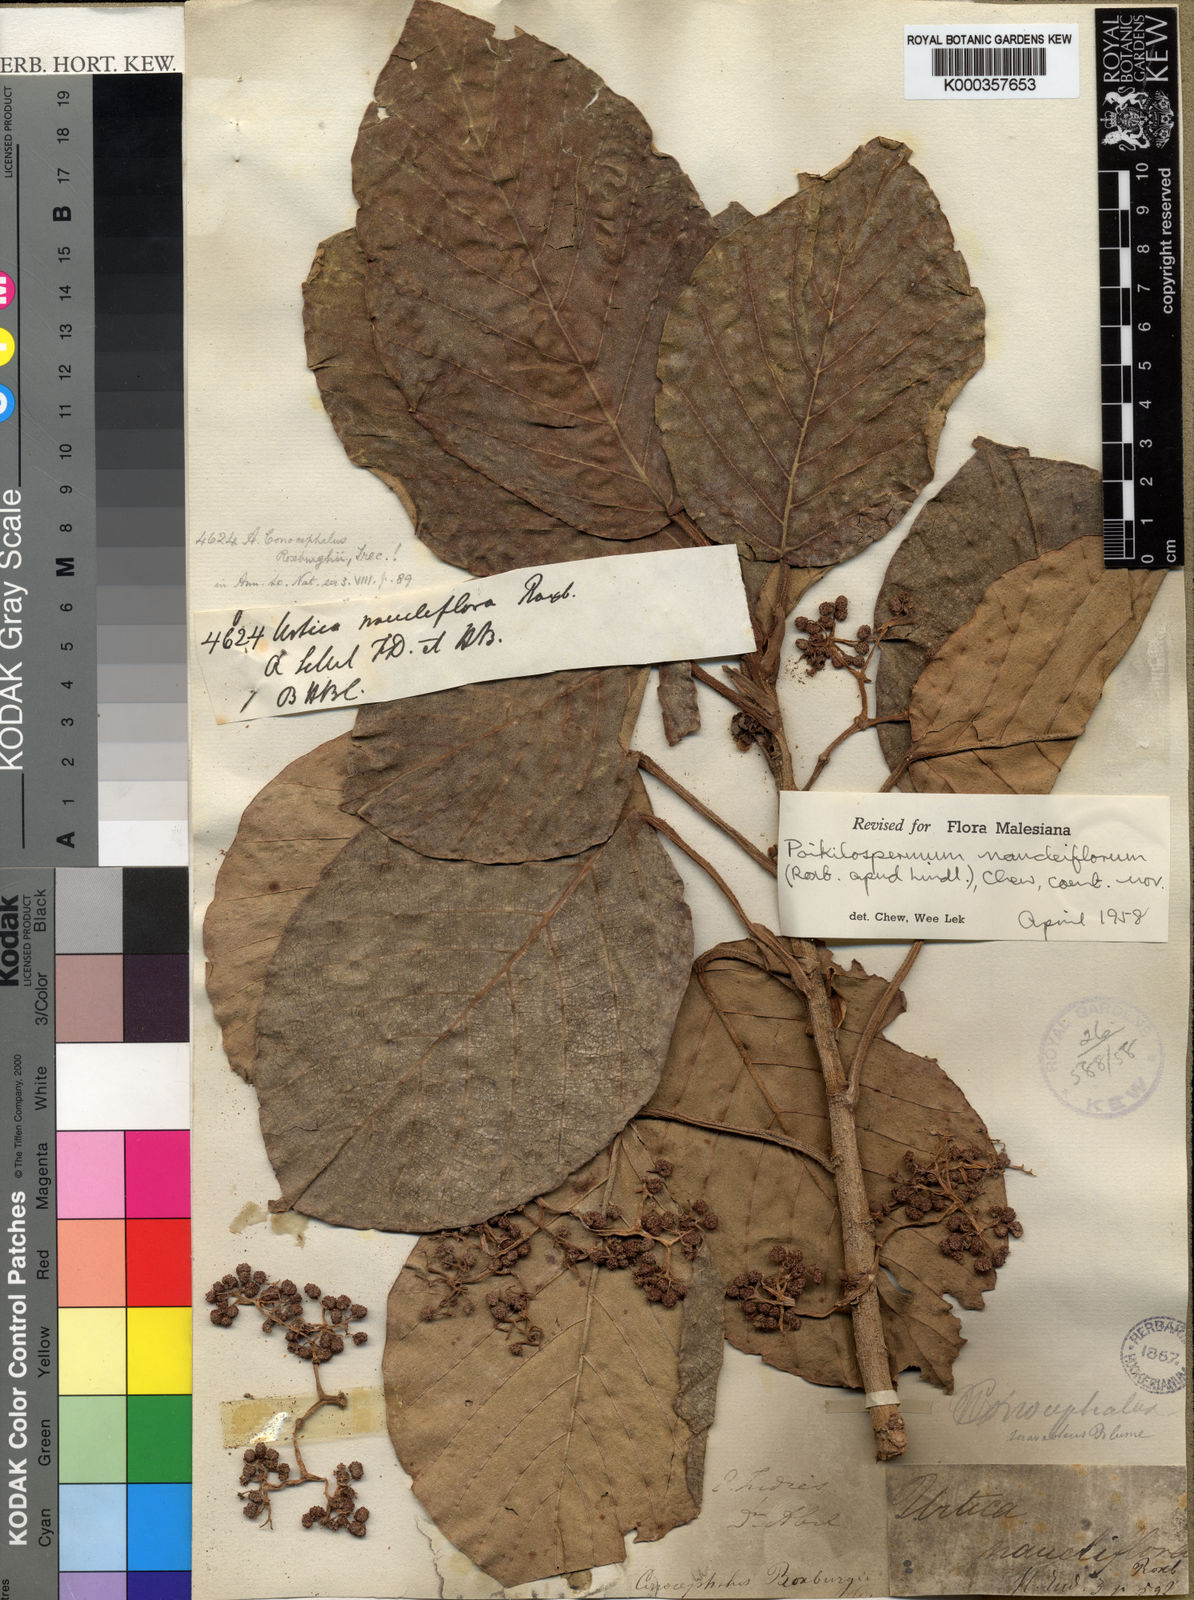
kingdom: Plantae
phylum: Tracheophyta
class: Magnoliopsida
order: Rosales
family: Urticaceae
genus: Poikilospermum
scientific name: Poikilospermum naucleiflorum
